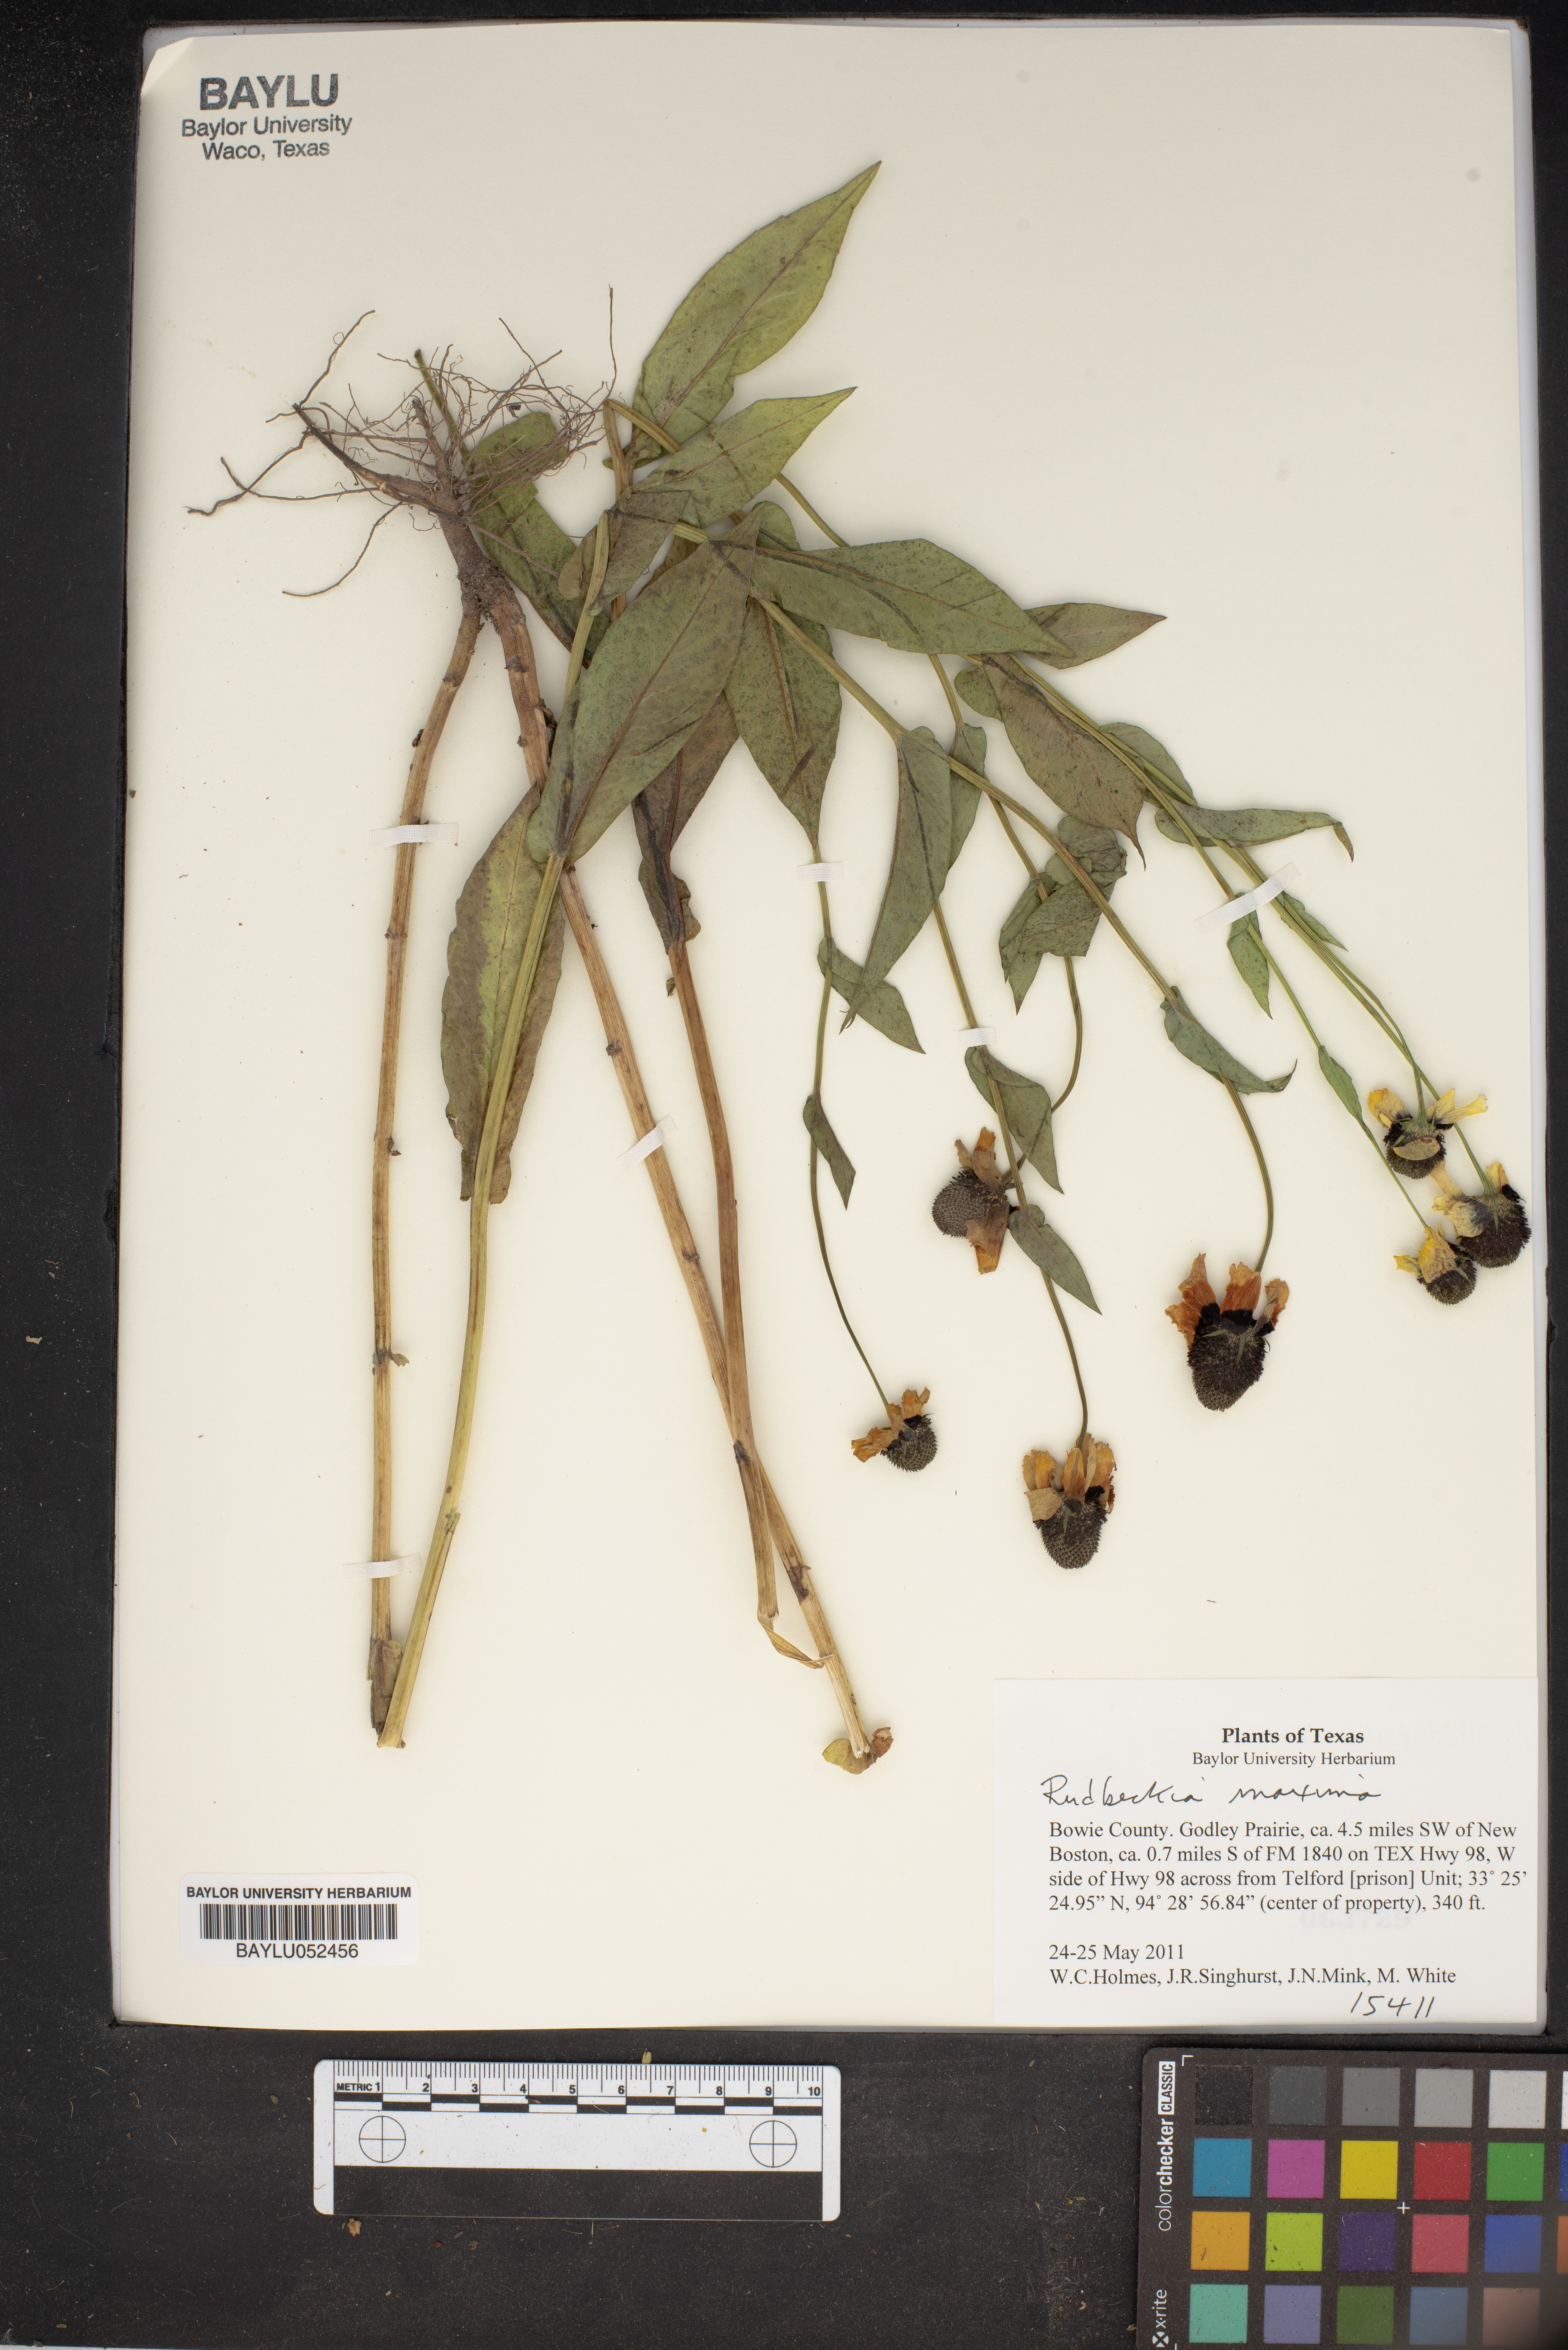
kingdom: Plantae
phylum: Tracheophyta
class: Magnoliopsida
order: Asterales
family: Asteraceae
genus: Rudbeckia
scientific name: Rudbeckia maxima
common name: Cabbage coneflower
